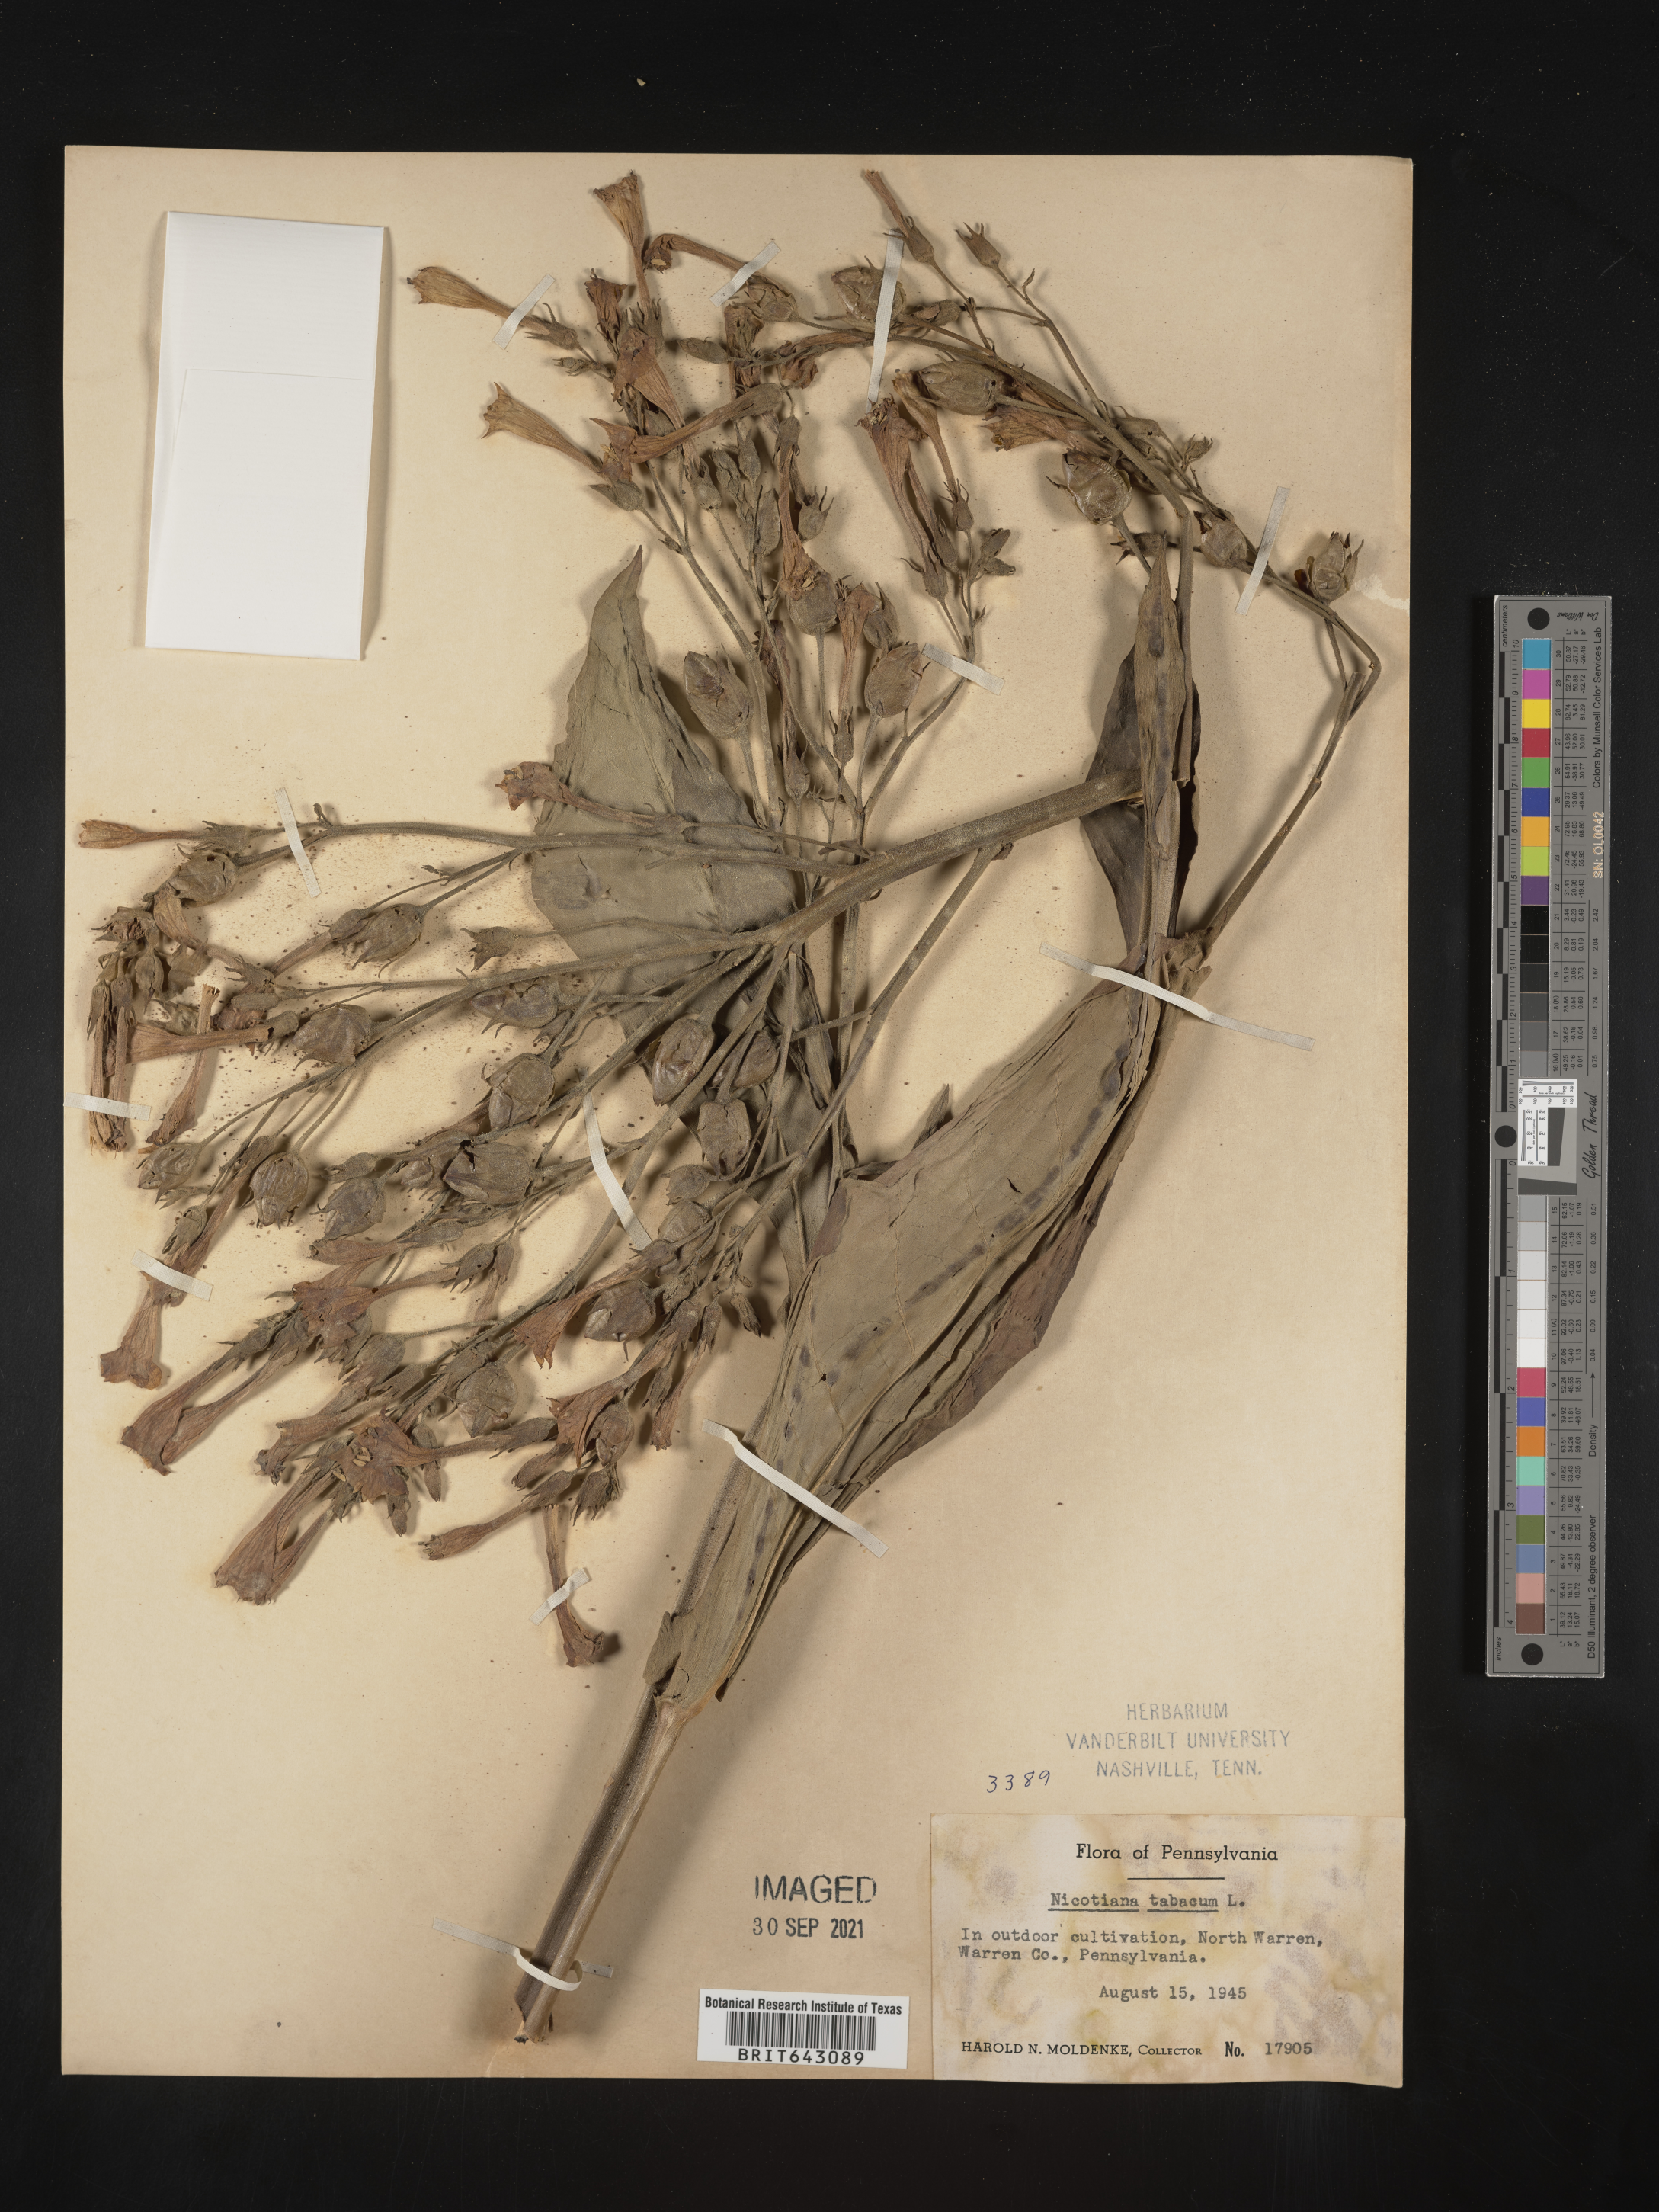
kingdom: Plantae
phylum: Tracheophyta
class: Magnoliopsida
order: Solanales
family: Solanaceae
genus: Nicotiana
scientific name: Nicotiana
